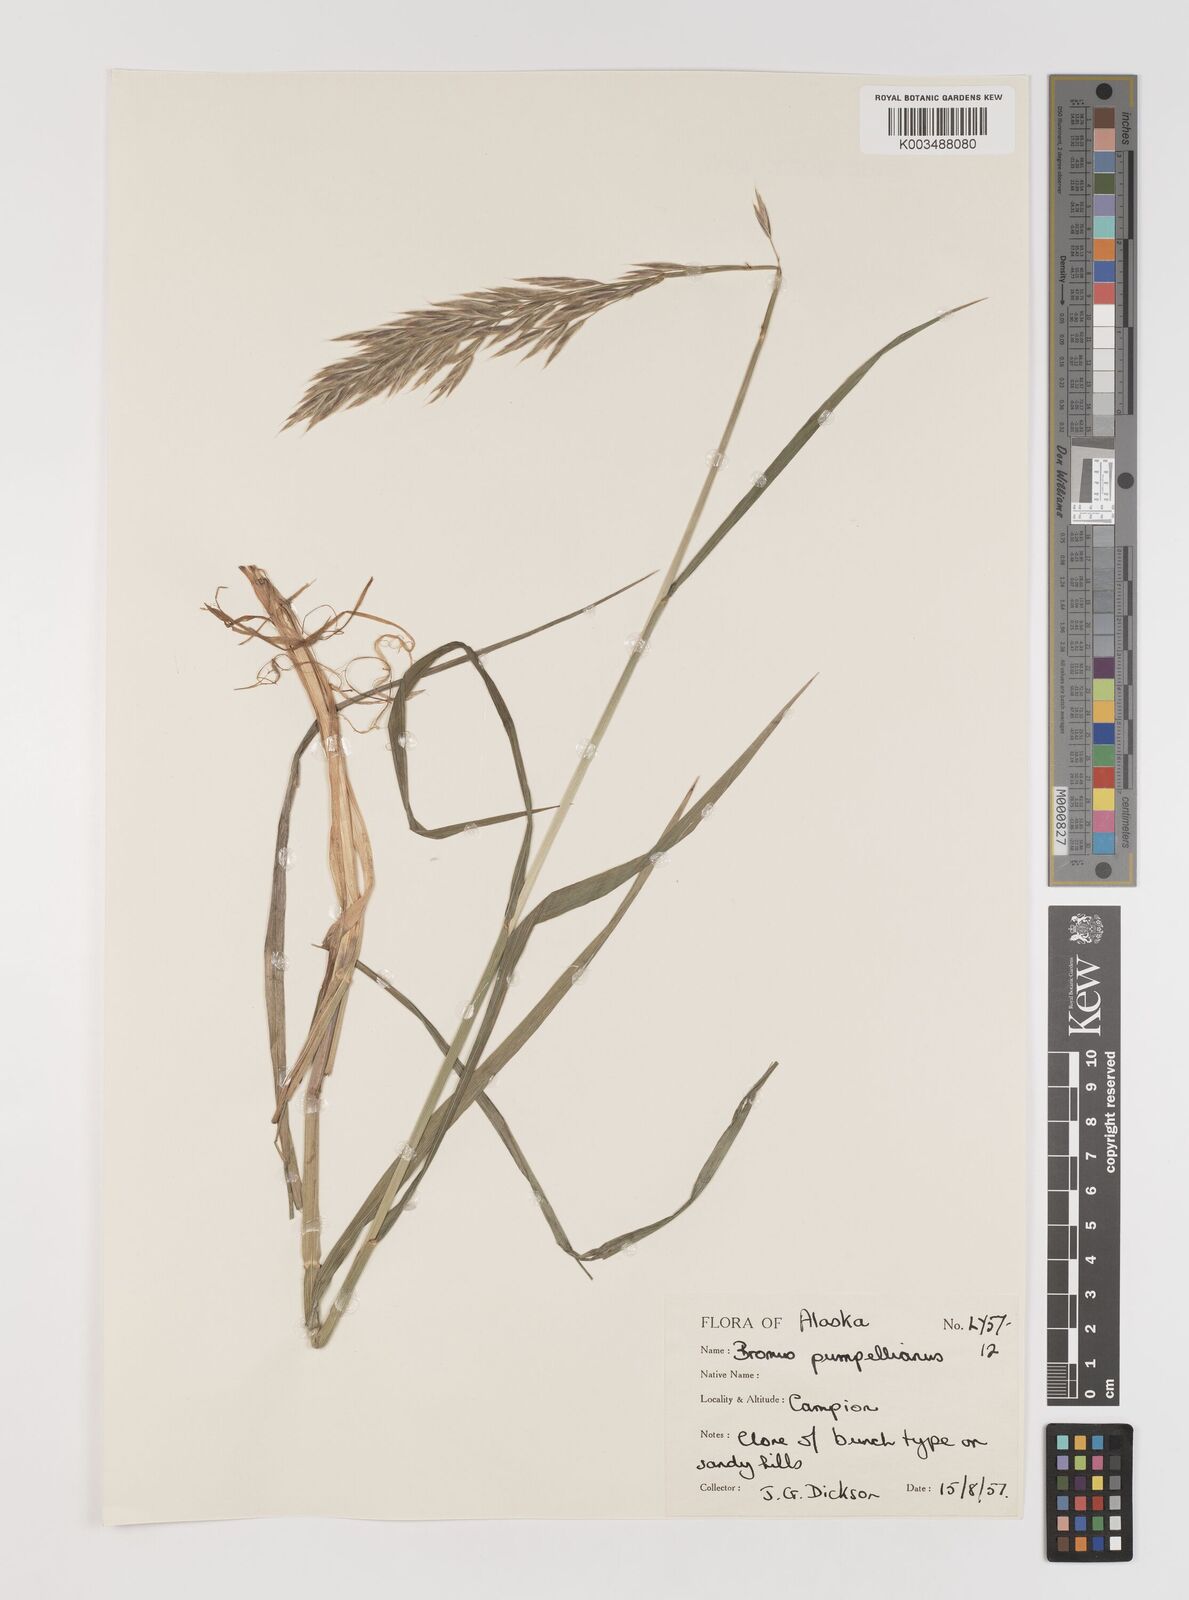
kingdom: Plantae
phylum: Tracheophyta
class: Liliopsida
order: Poales
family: Poaceae
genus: Bromus
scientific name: Bromus pumpellianus
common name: Pumpelly's brome
